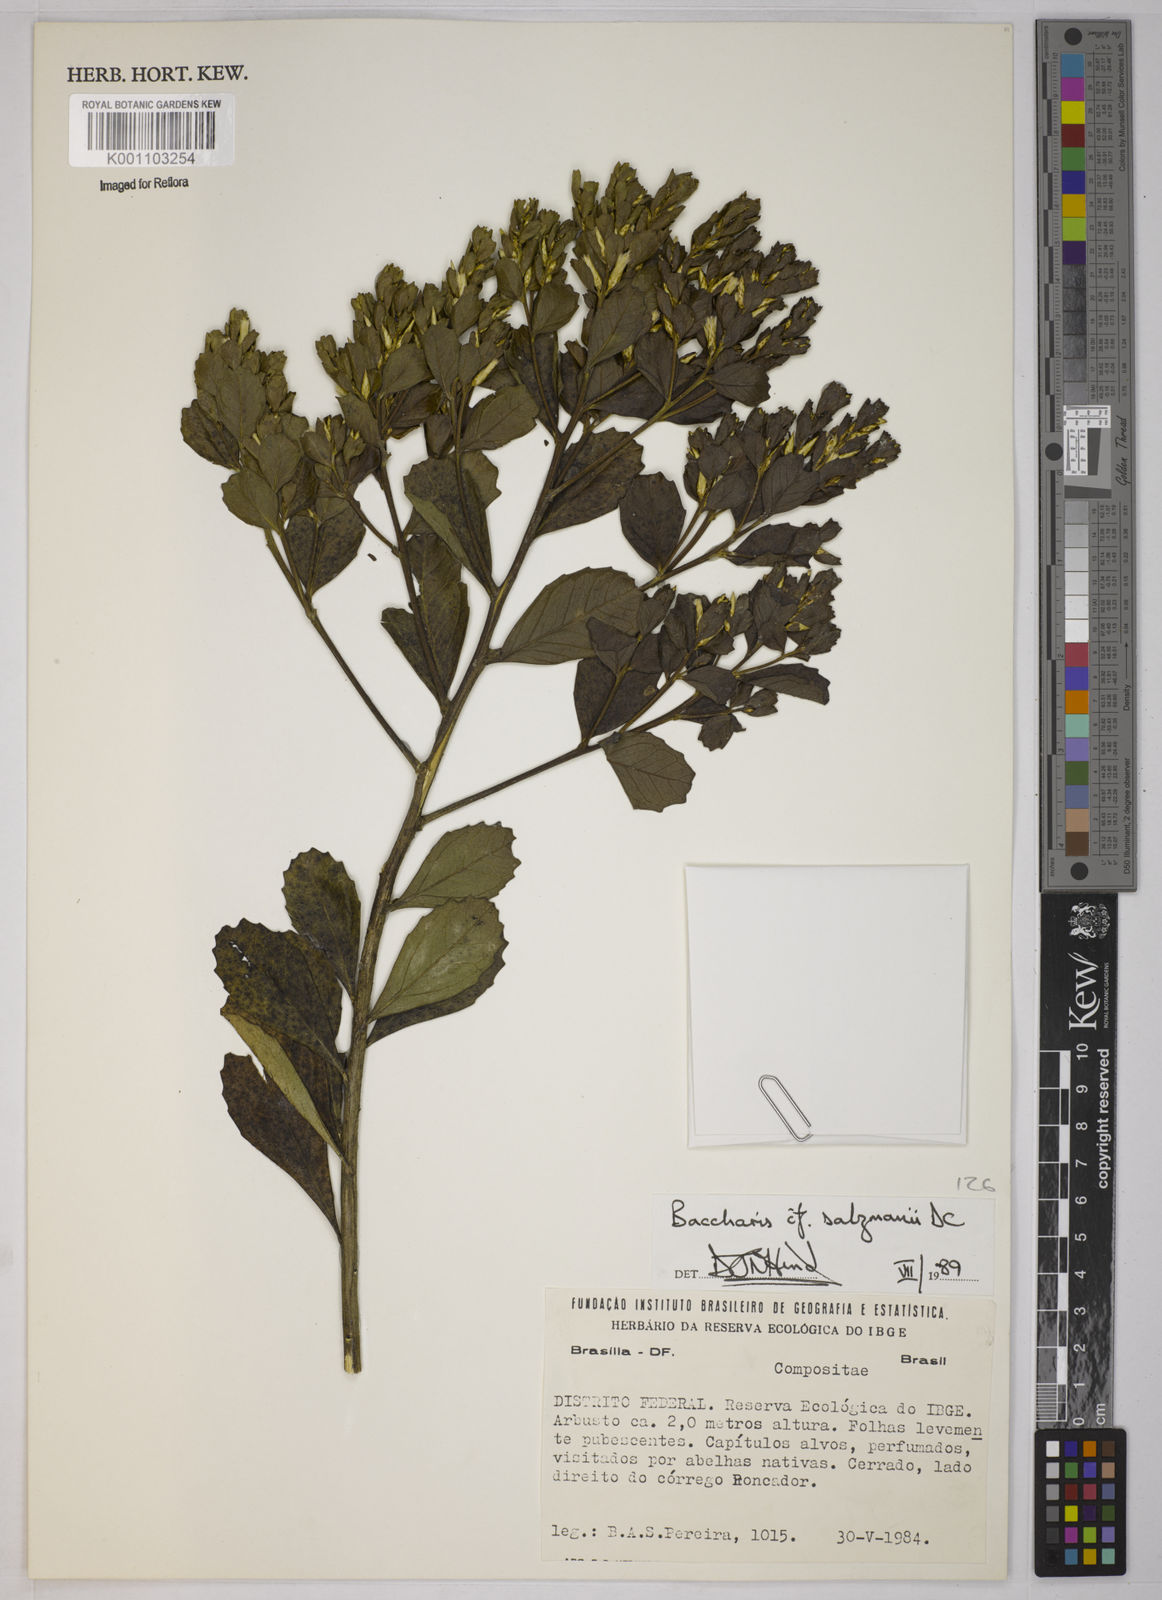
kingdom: Plantae
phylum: Tracheophyta
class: Magnoliopsida
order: Asterales
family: Asteraceae
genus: Baccharis
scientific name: Baccharis retusa
